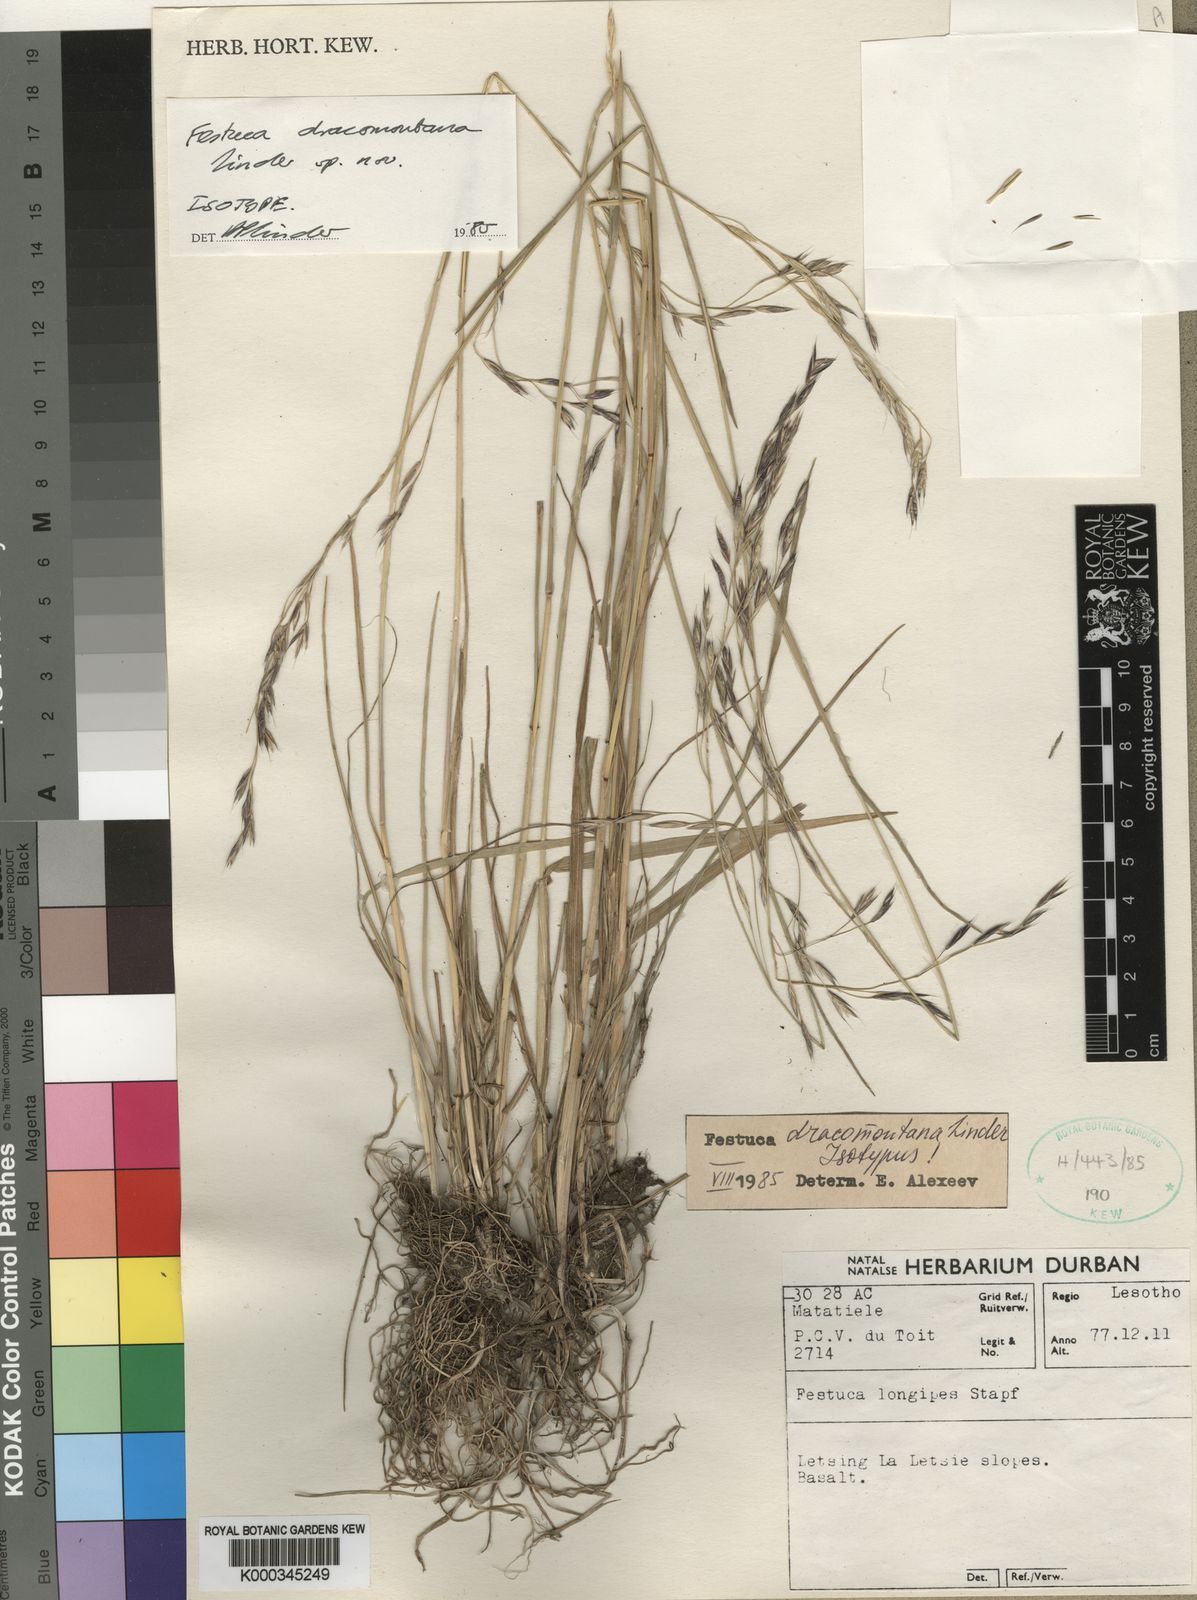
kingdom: Plantae
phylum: Tracheophyta
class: Liliopsida
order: Poales
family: Poaceae
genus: Festuca
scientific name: Festuca dracomontana
